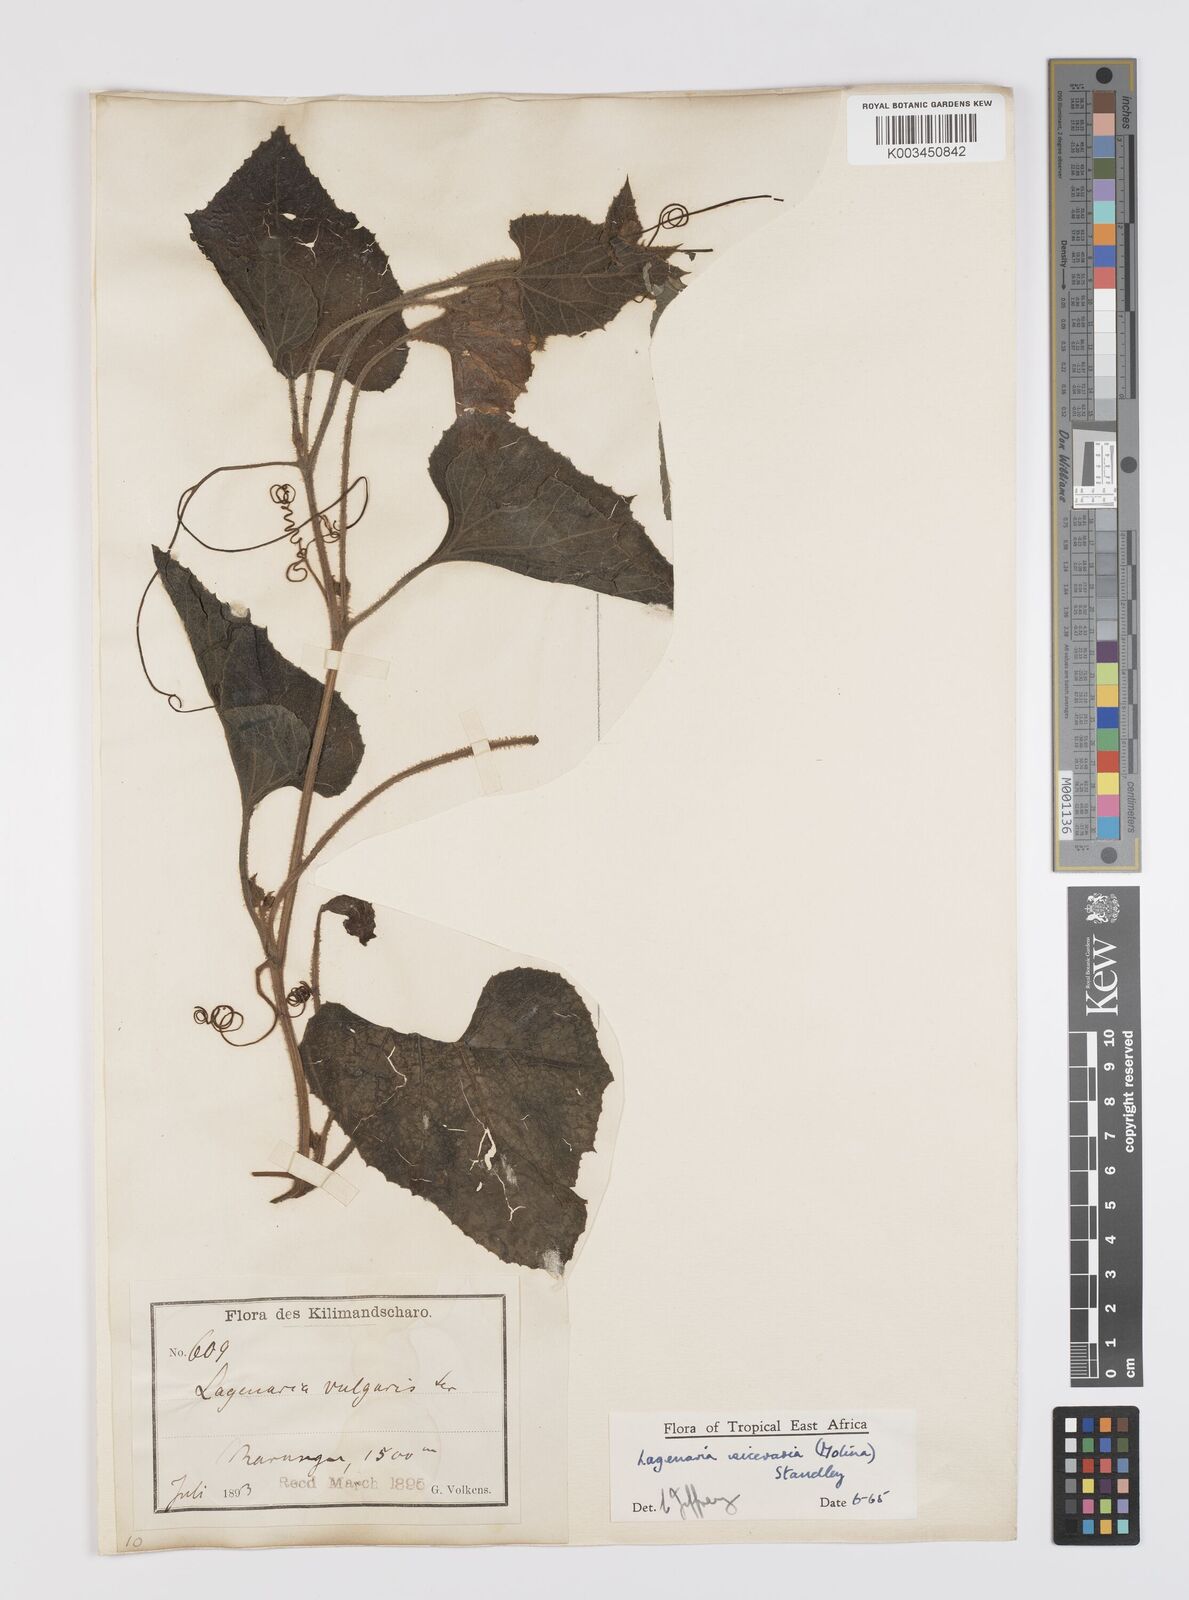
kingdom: Plantae
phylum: Tracheophyta
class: Magnoliopsida
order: Cucurbitales
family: Cucurbitaceae
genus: Lagenaria
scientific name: Lagenaria siceraria
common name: Bottle gourd
